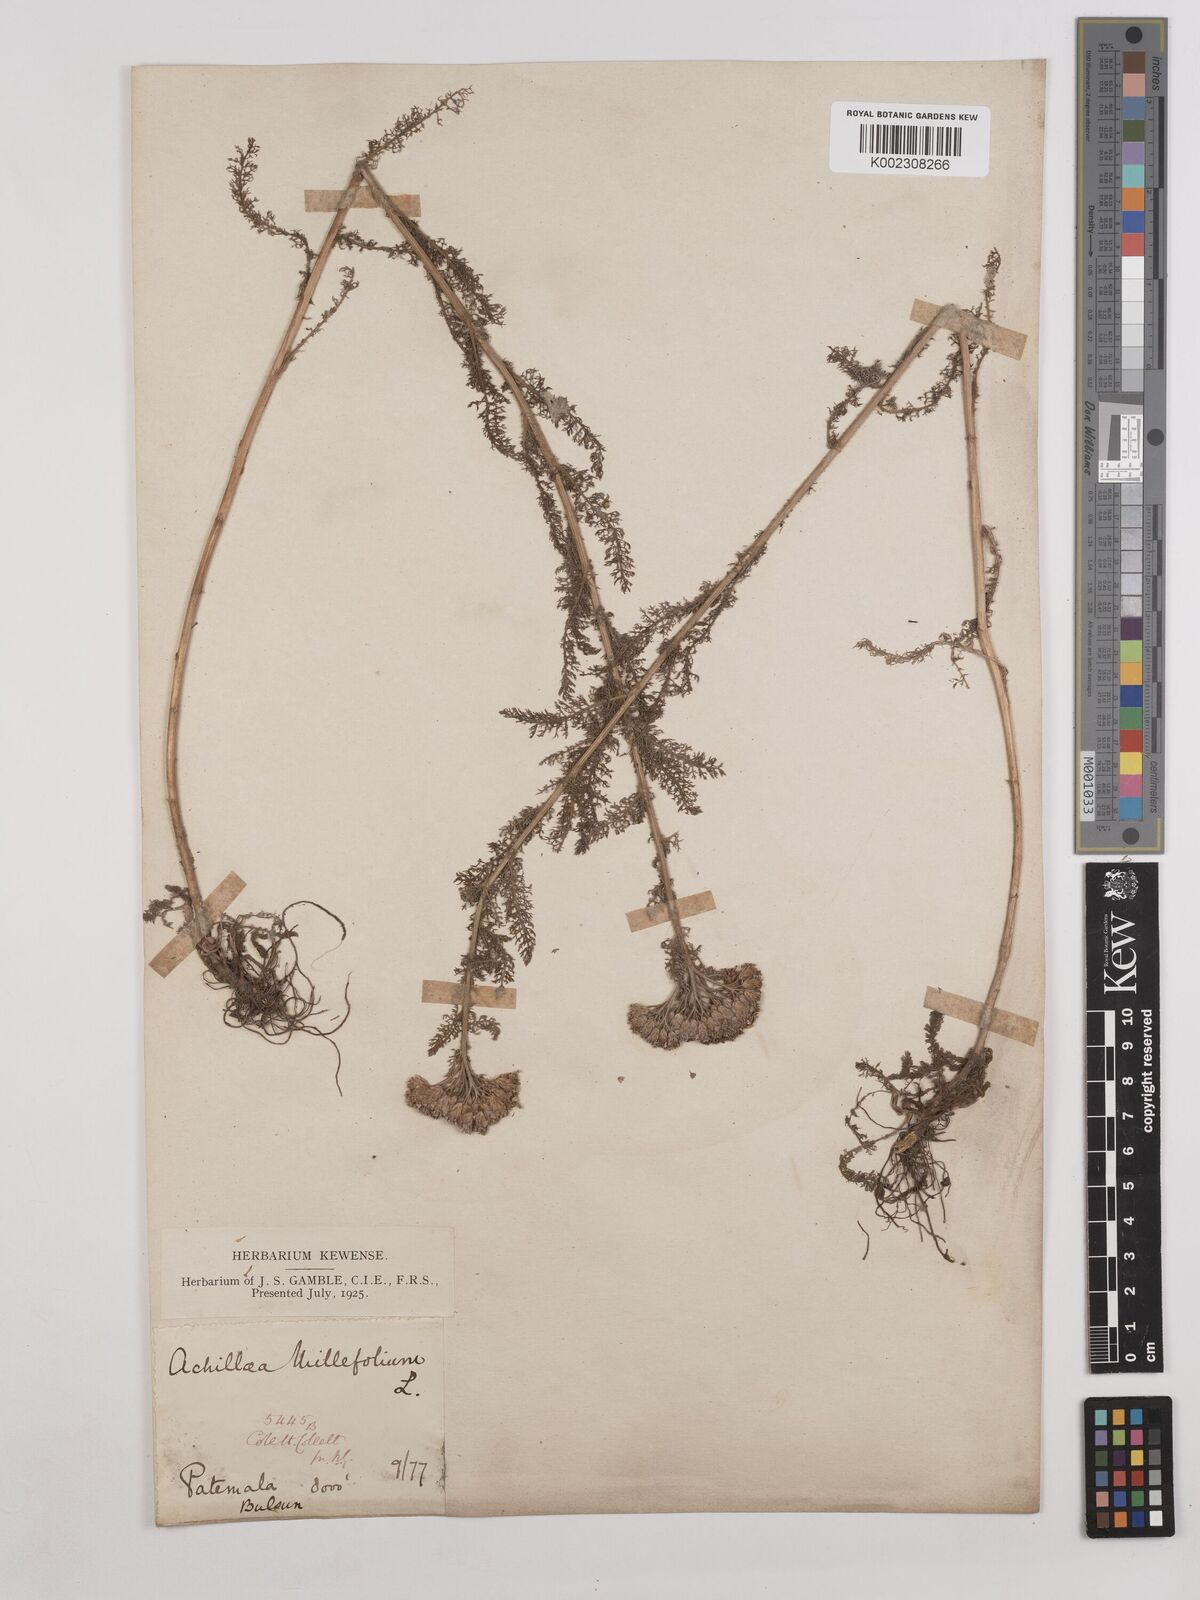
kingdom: Plantae
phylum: Tracheophyta
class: Magnoliopsida
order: Asterales
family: Asteraceae
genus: Achillea
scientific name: Achillea millefolium
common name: Yarrow
